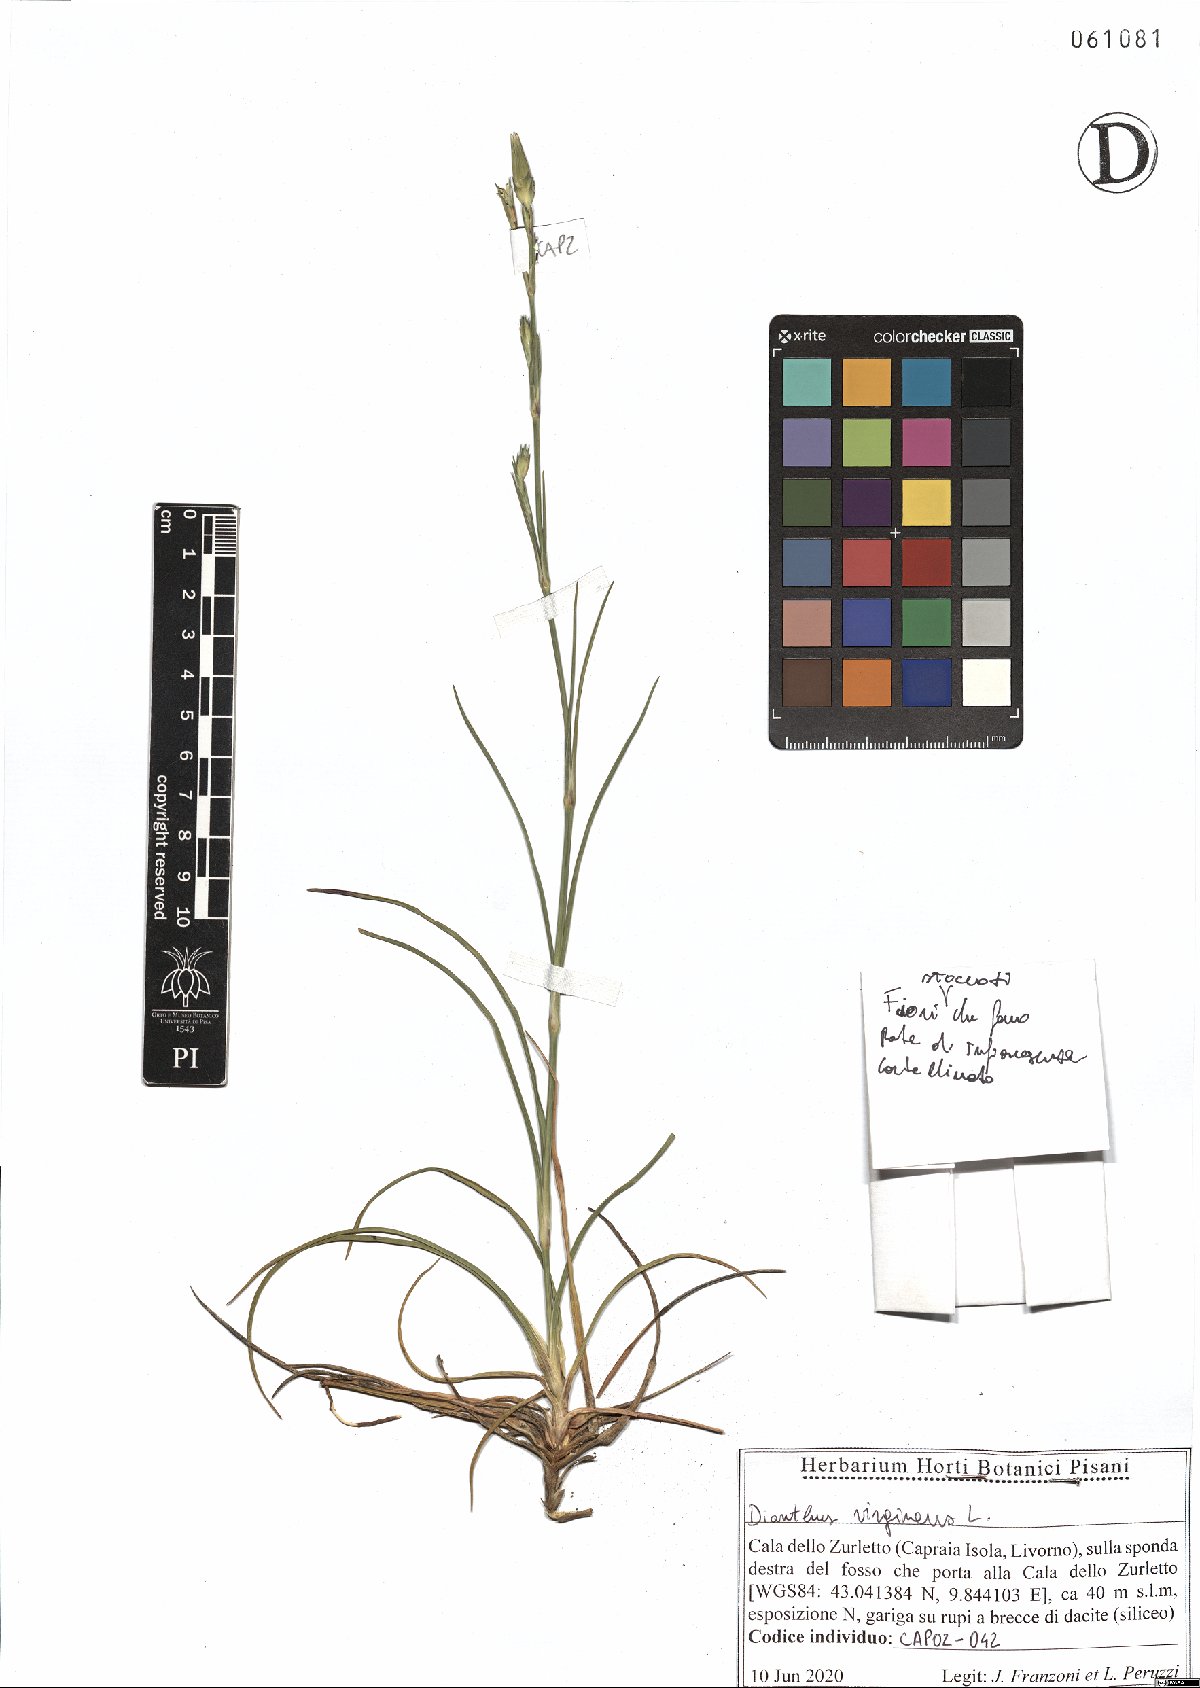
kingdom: Plantae
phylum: Tracheophyta
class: Magnoliopsida
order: Caryophyllales
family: Caryophyllaceae
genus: Dianthus
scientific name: Dianthus virgineus
